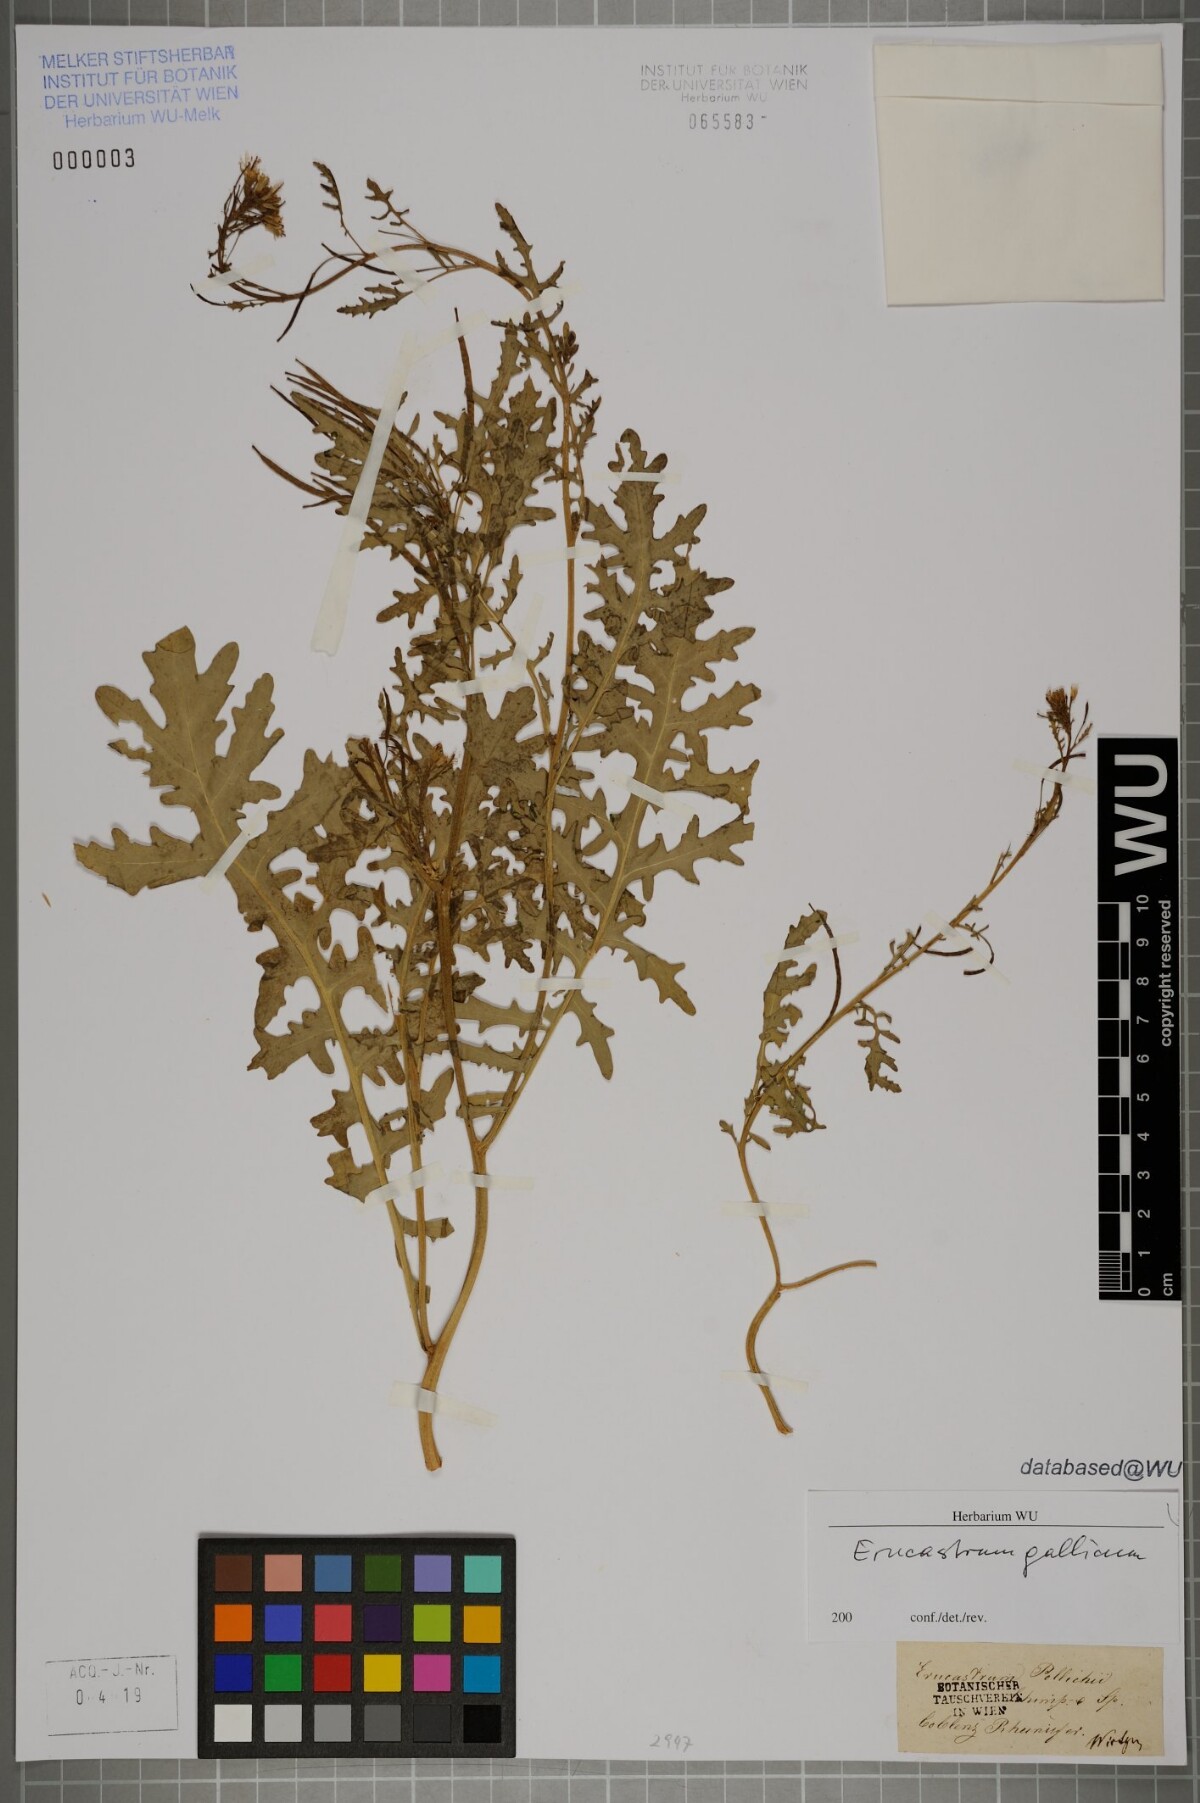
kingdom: Plantae
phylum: Tracheophyta
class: Magnoliopsida
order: Brassicales
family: Brassicaceae
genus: Erucastrum
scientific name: Erucastrum gallicum
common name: Hairy rocket
